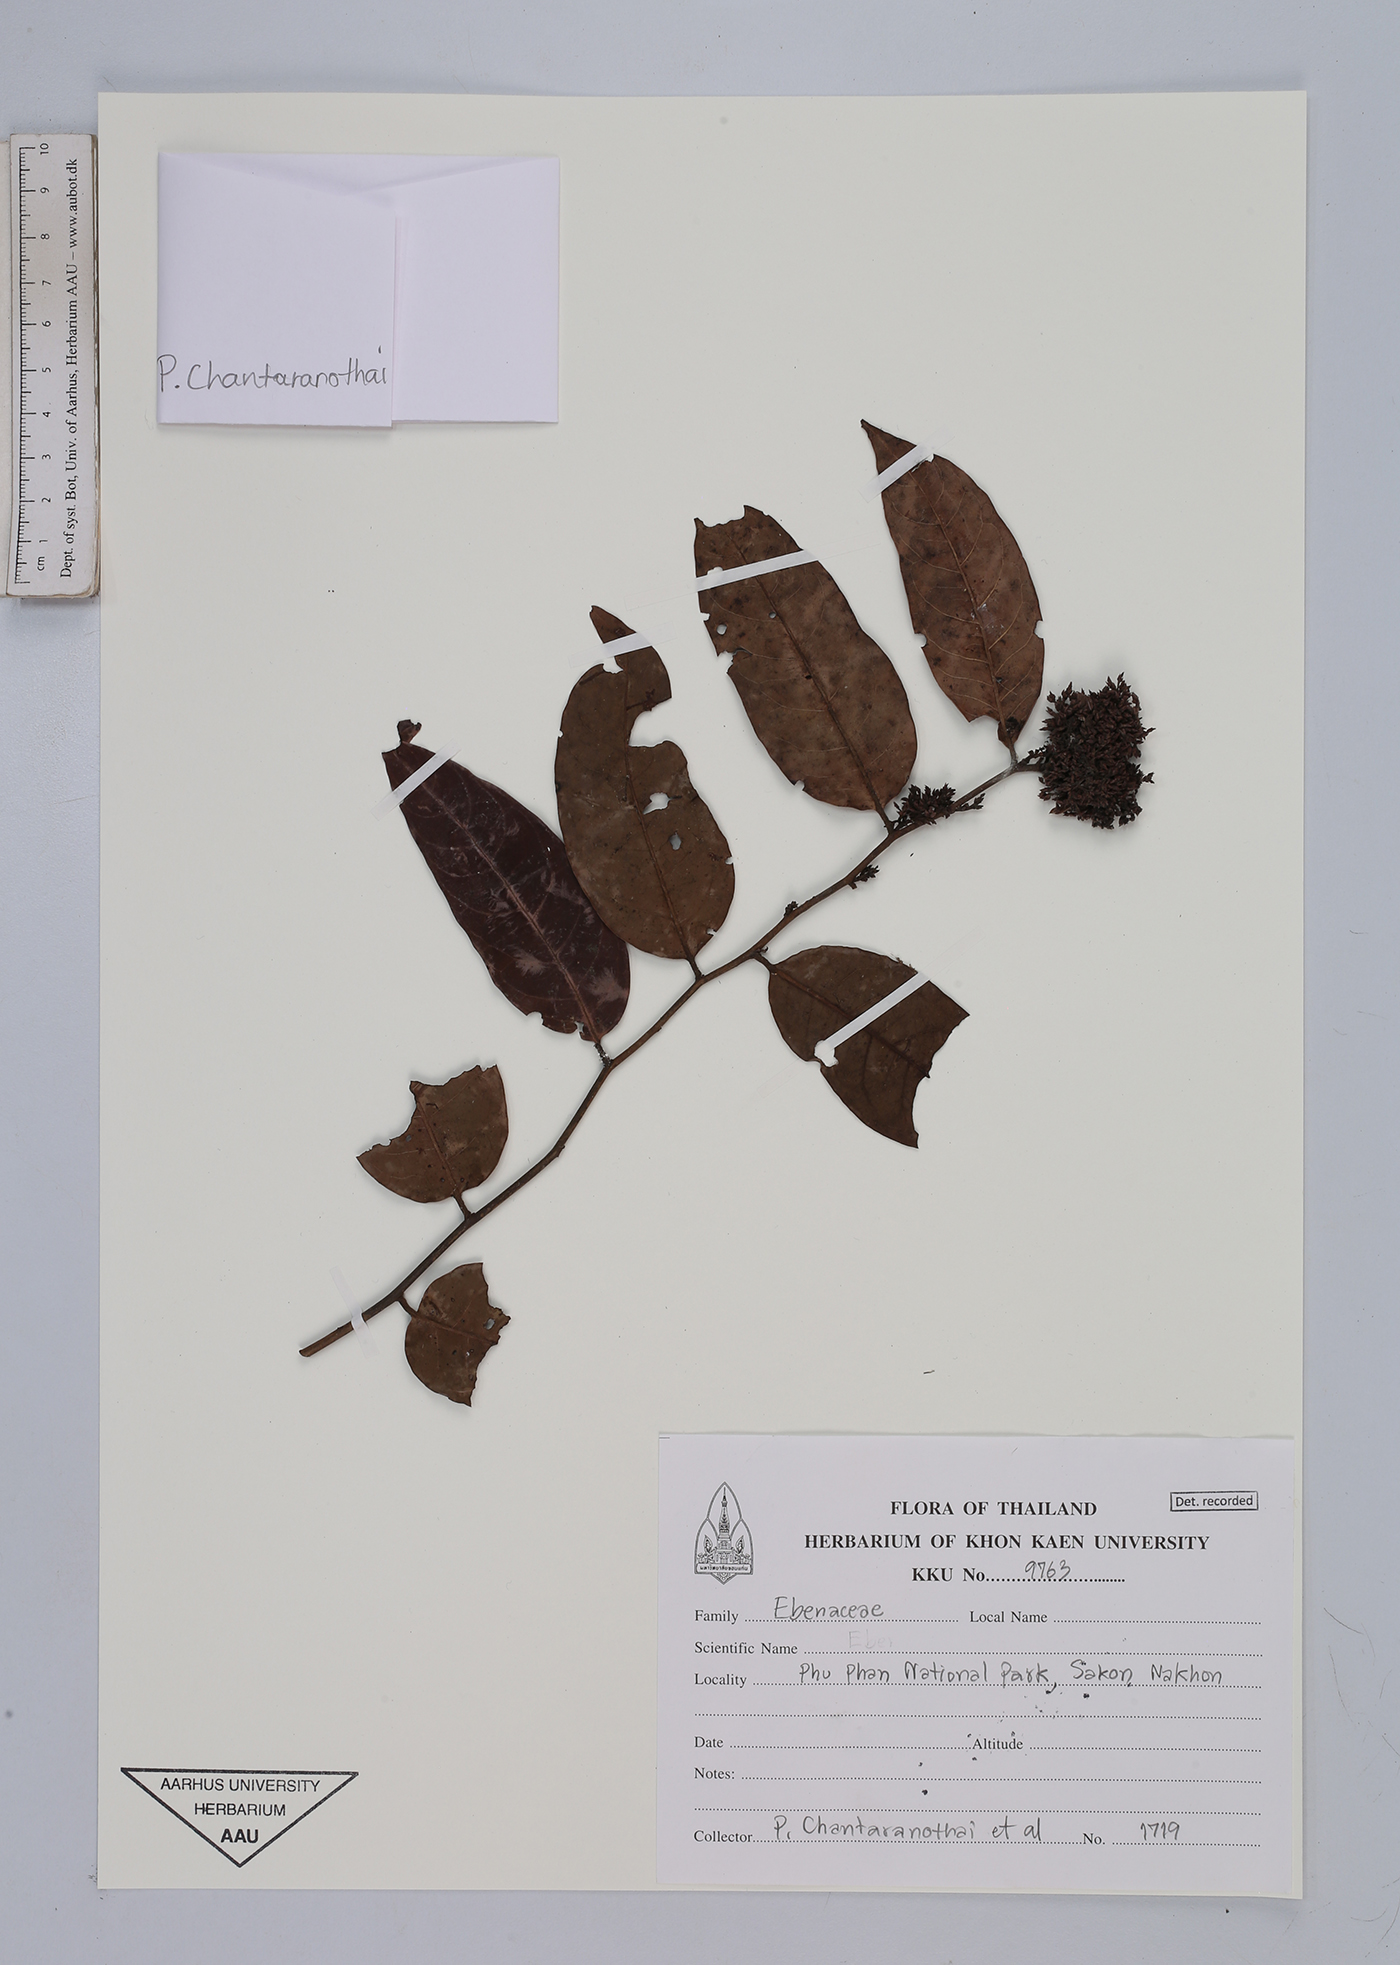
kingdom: Plantae
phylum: Tracheophyta
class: Magnoliopsida
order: Ericales
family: Ebenaceae
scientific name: Ebenaceae
